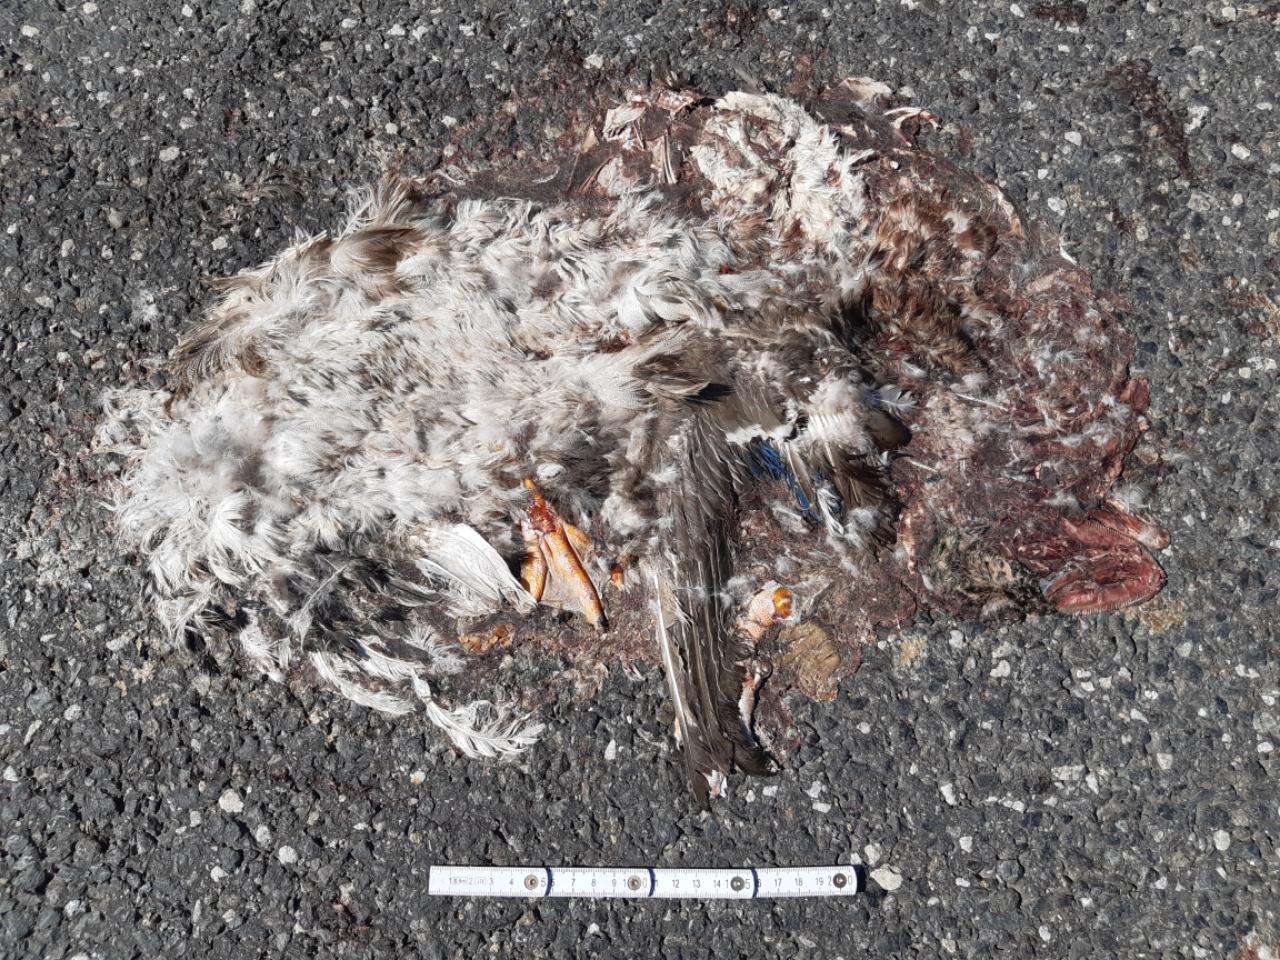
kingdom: Animalia
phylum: Chordata
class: Aves
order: Anseriformes
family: Anatidae
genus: Anas
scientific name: Anas platyrhynchos
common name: Mallard
